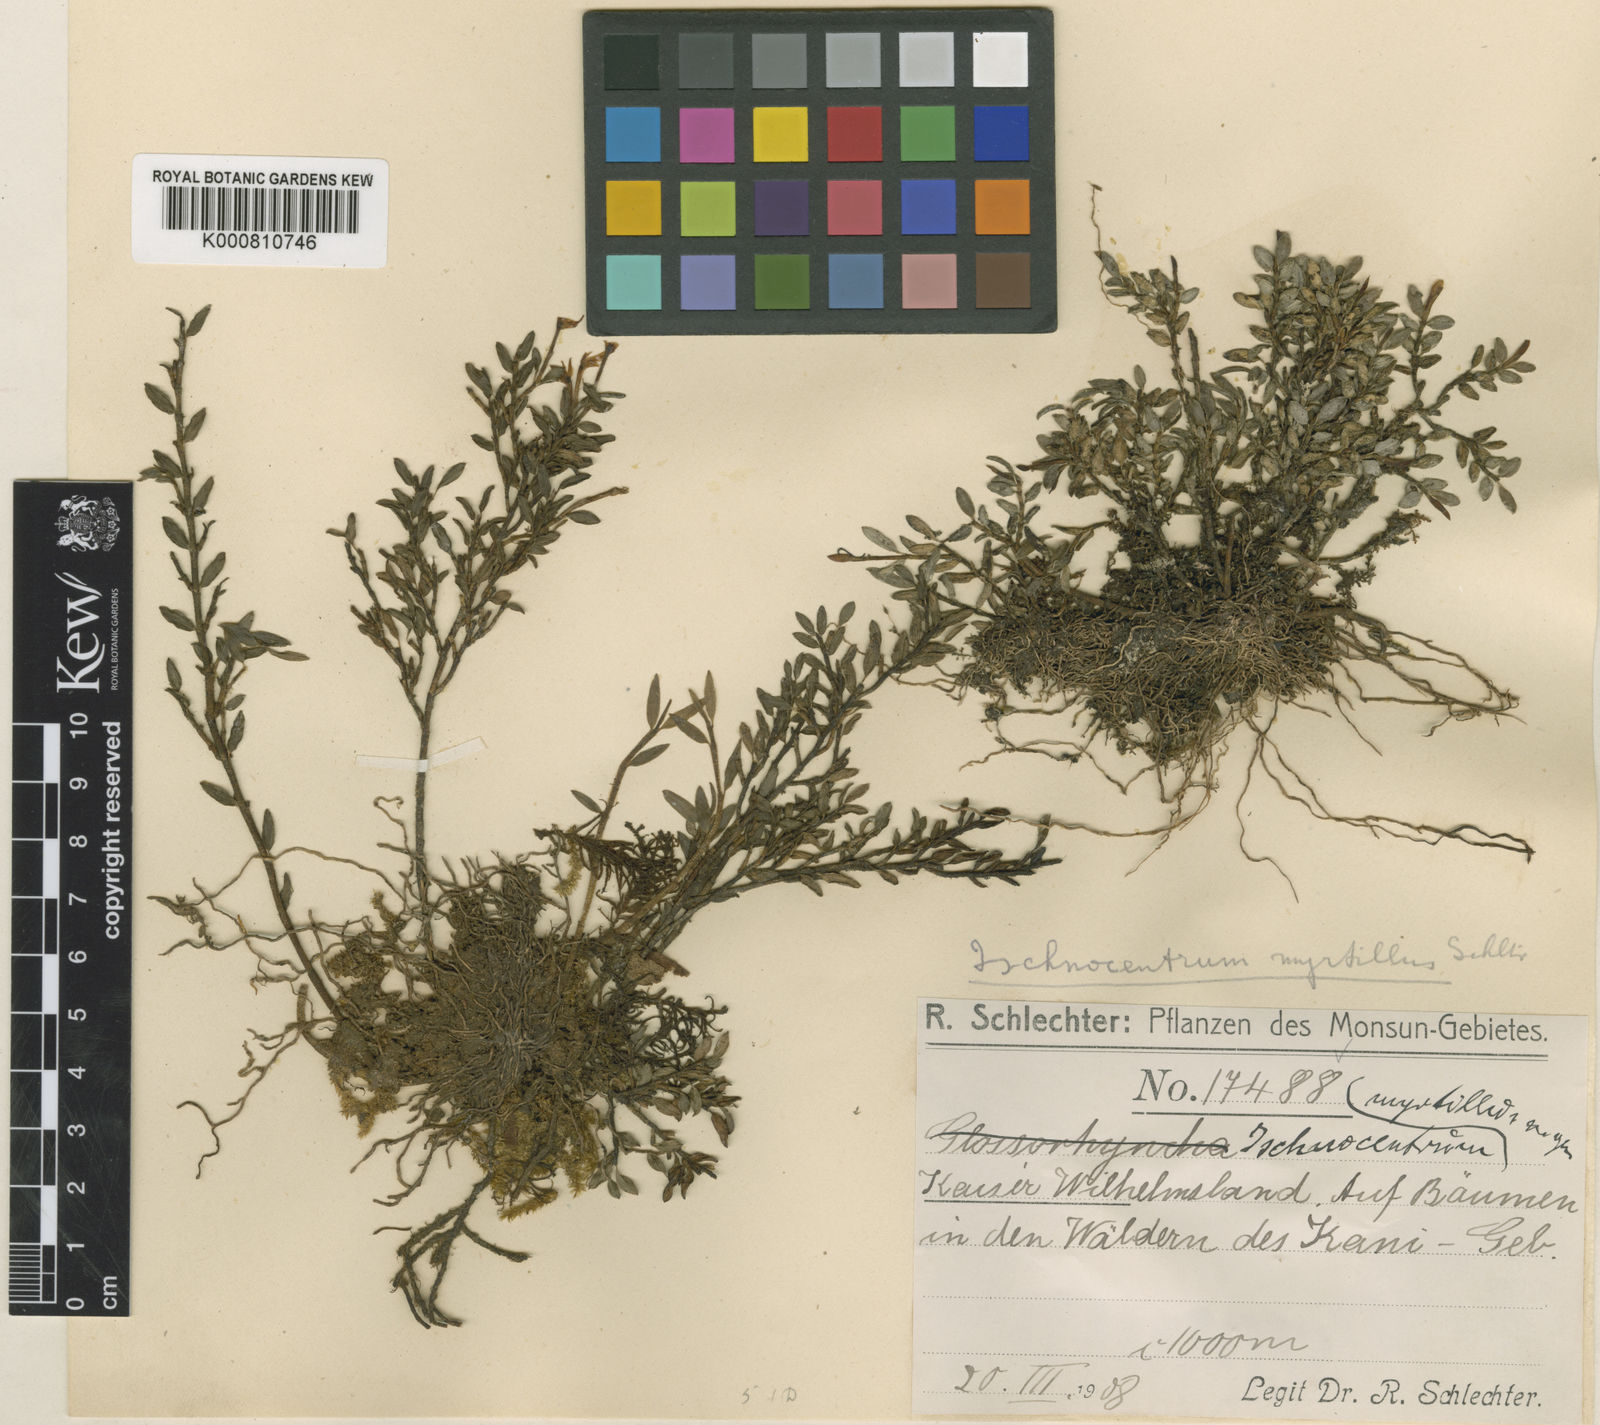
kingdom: Plantae
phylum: Tracheophyta
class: Liliopsida
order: Asparagales
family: Orchidaceae
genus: Glomera
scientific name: Glomera myrtillus
